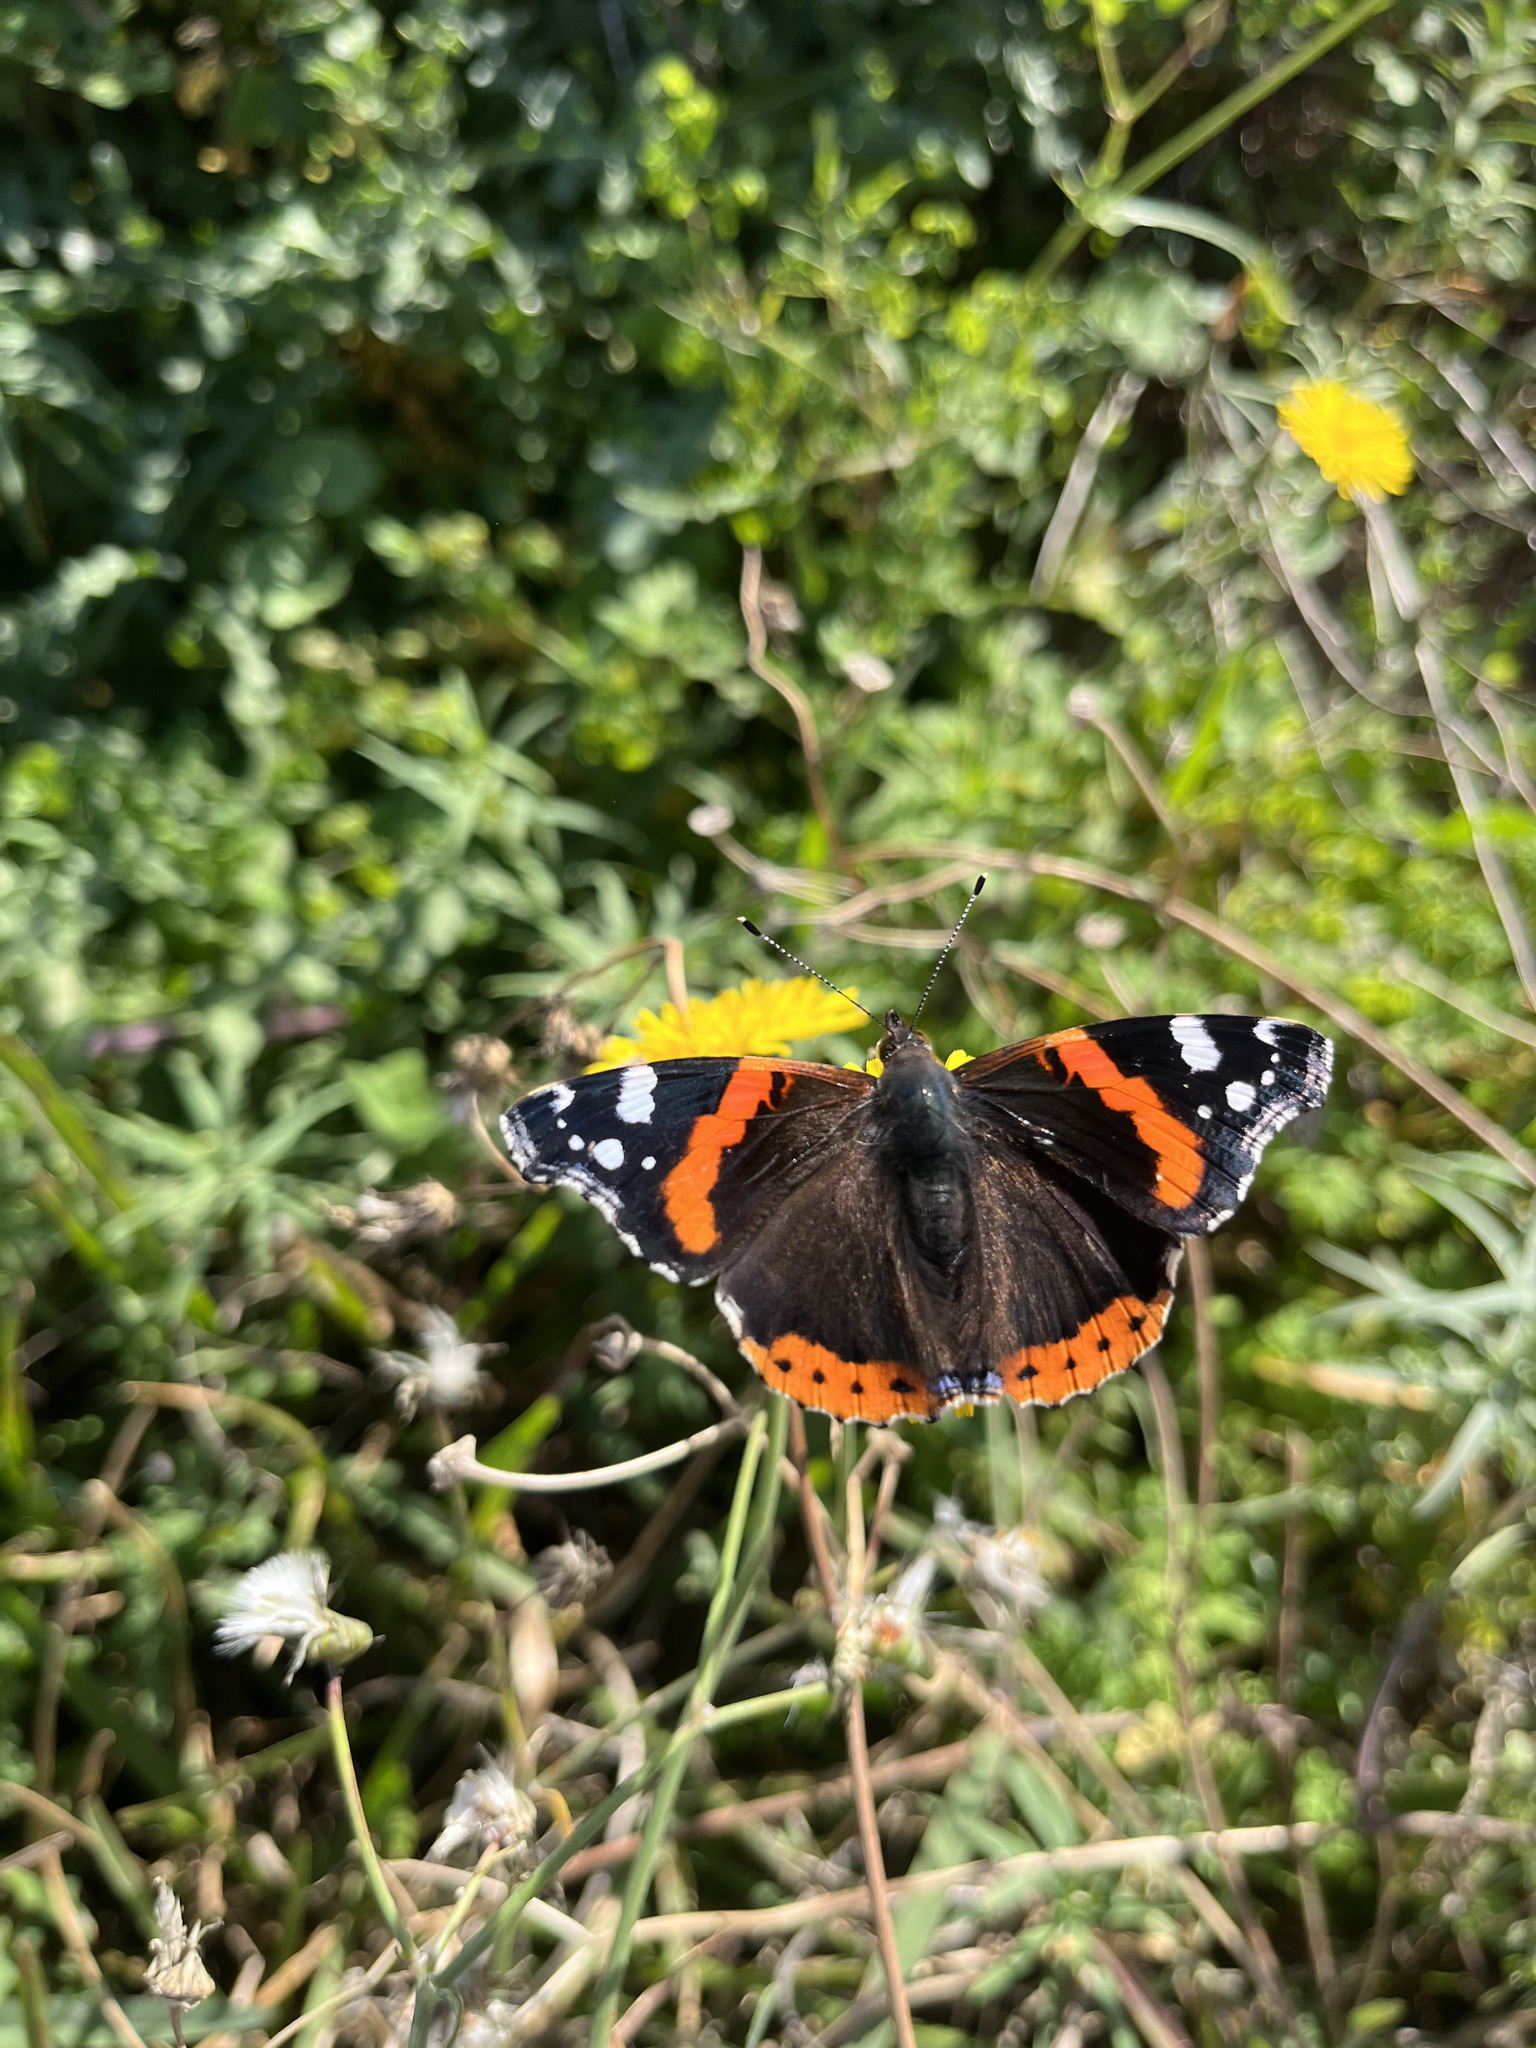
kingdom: Animalia
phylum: Arthropoda
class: Insecta
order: Lepidoptera
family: Nymphalidae
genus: Vanessa
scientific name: Vanessa atalanta
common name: Red admiral
